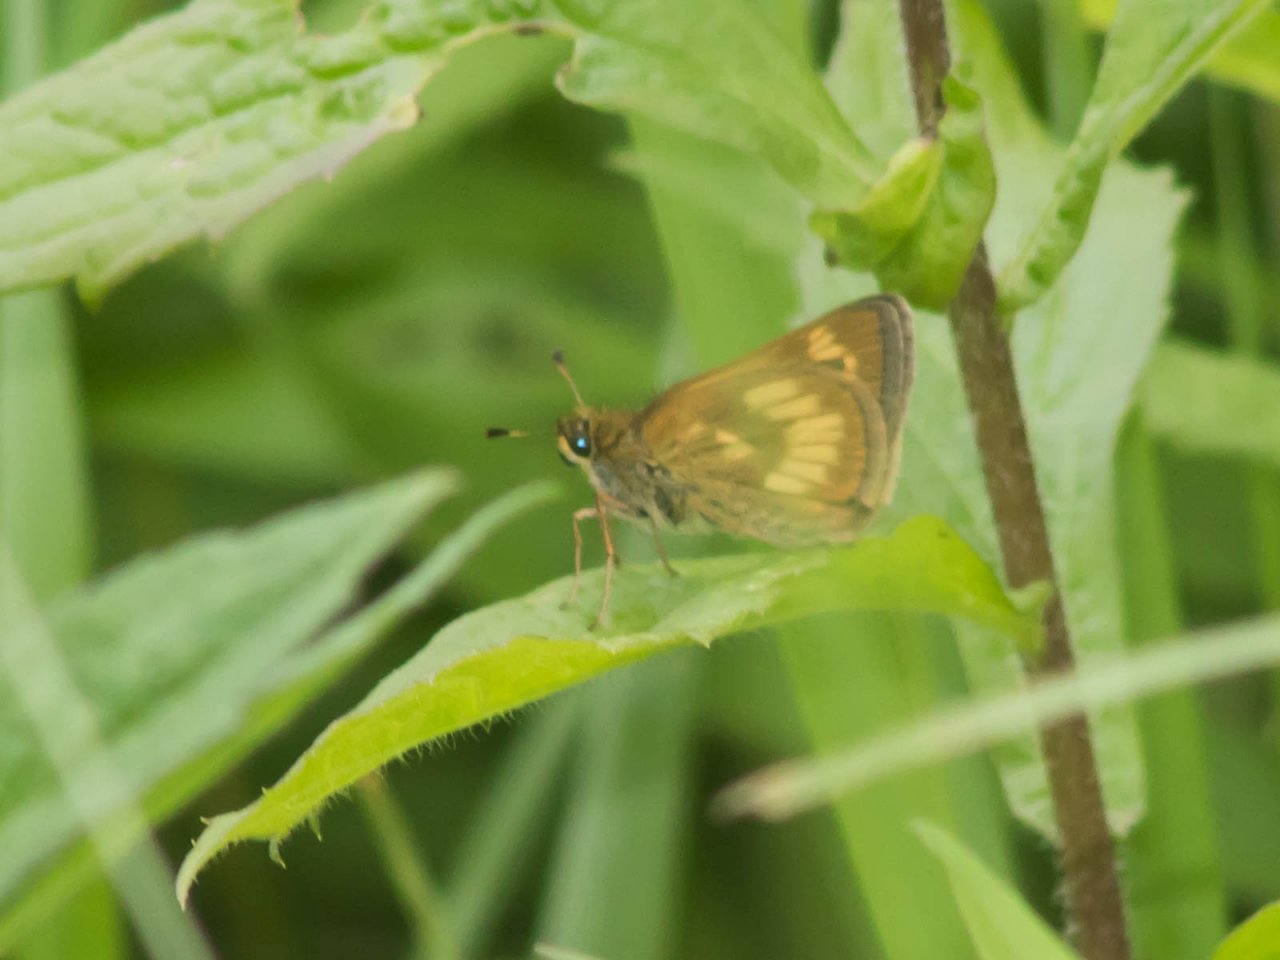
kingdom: Animalia
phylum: Arthropoda
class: Insecta
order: Lepidoptera
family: Hesperiidae
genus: Polites
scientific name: Polites
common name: Long Dash Skipper
